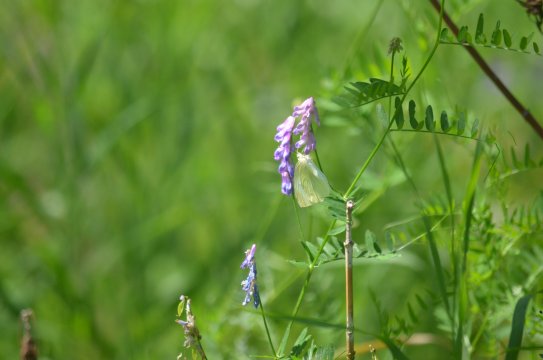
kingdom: Animalia
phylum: Arthropoda
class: Insecta
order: Lepidoptera
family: Pieridae
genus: Pieris
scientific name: Pieris rapae
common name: Cabbage White
